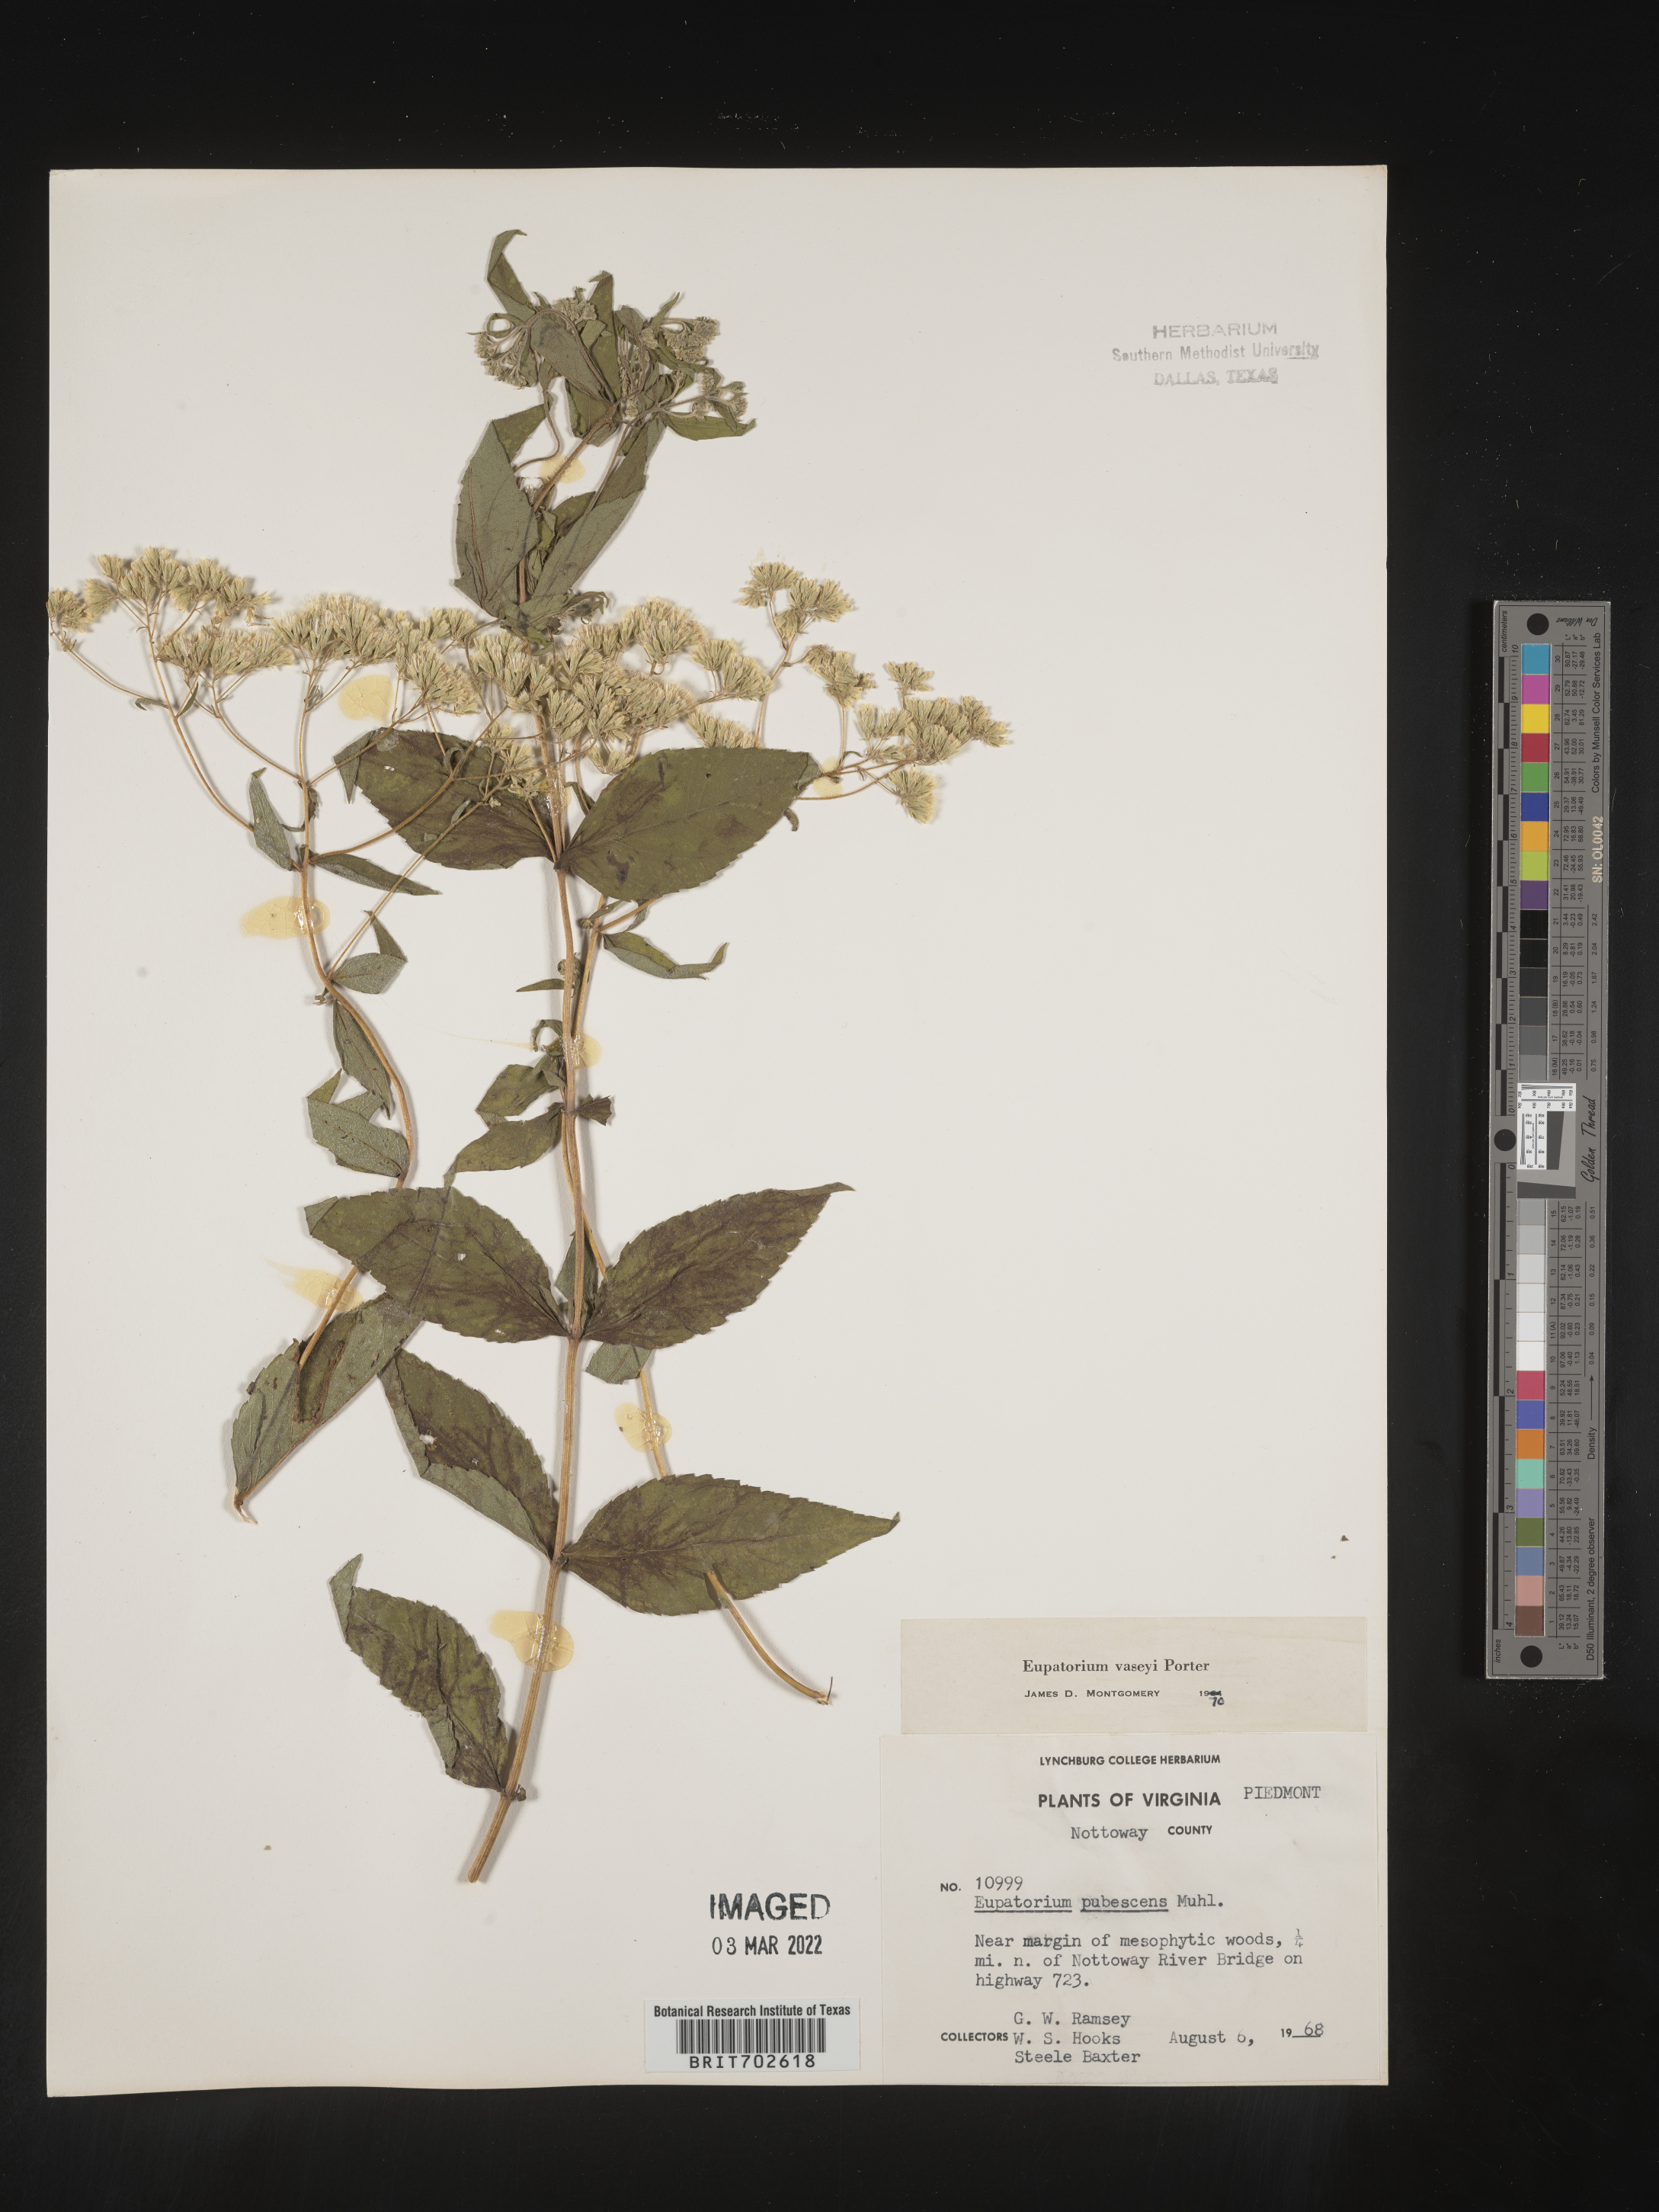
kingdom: Plantae
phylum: Tracheophyta
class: Magnoliopsida
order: Asterales
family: Asteraceae
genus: Eupatorium
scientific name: Eupatorium sessilifolium
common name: Upland boneset
